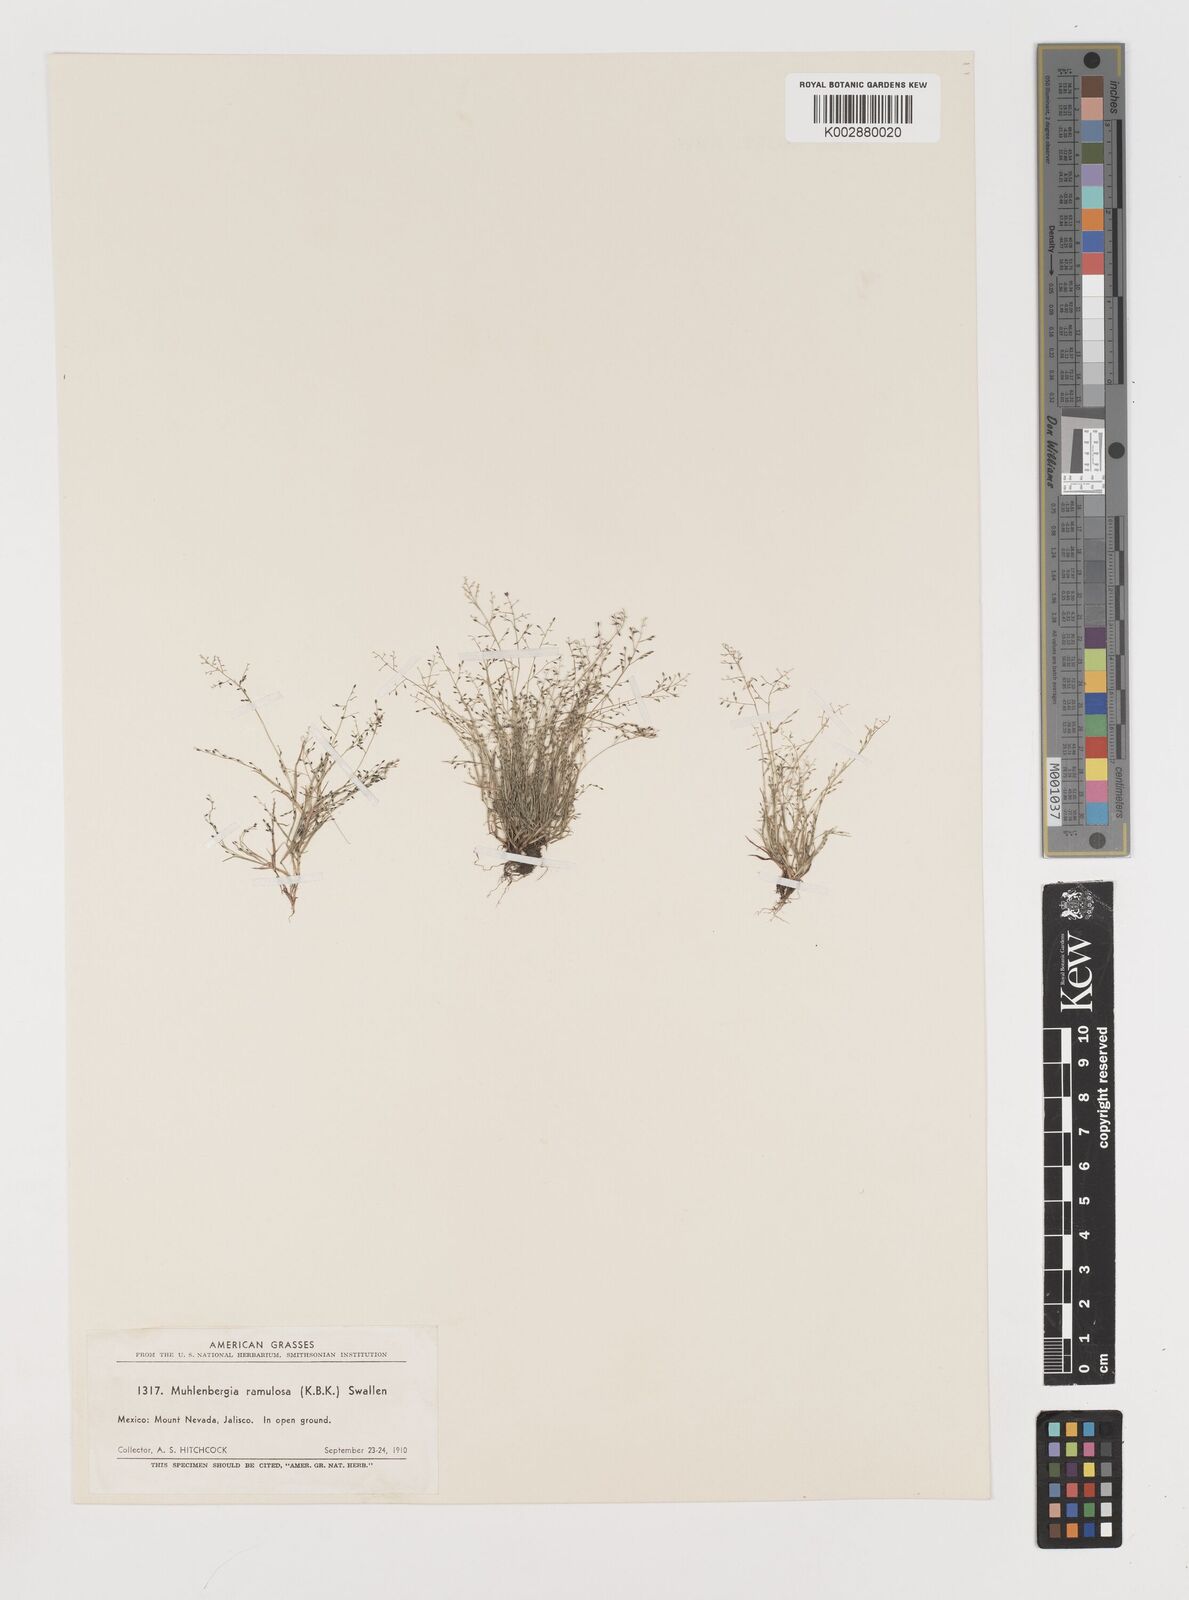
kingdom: Plantae
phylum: Tracheophyta
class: Liliopsida
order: Poales
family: Poaceae
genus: Muhlenbergia
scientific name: Muhlenbergia ramulosa
